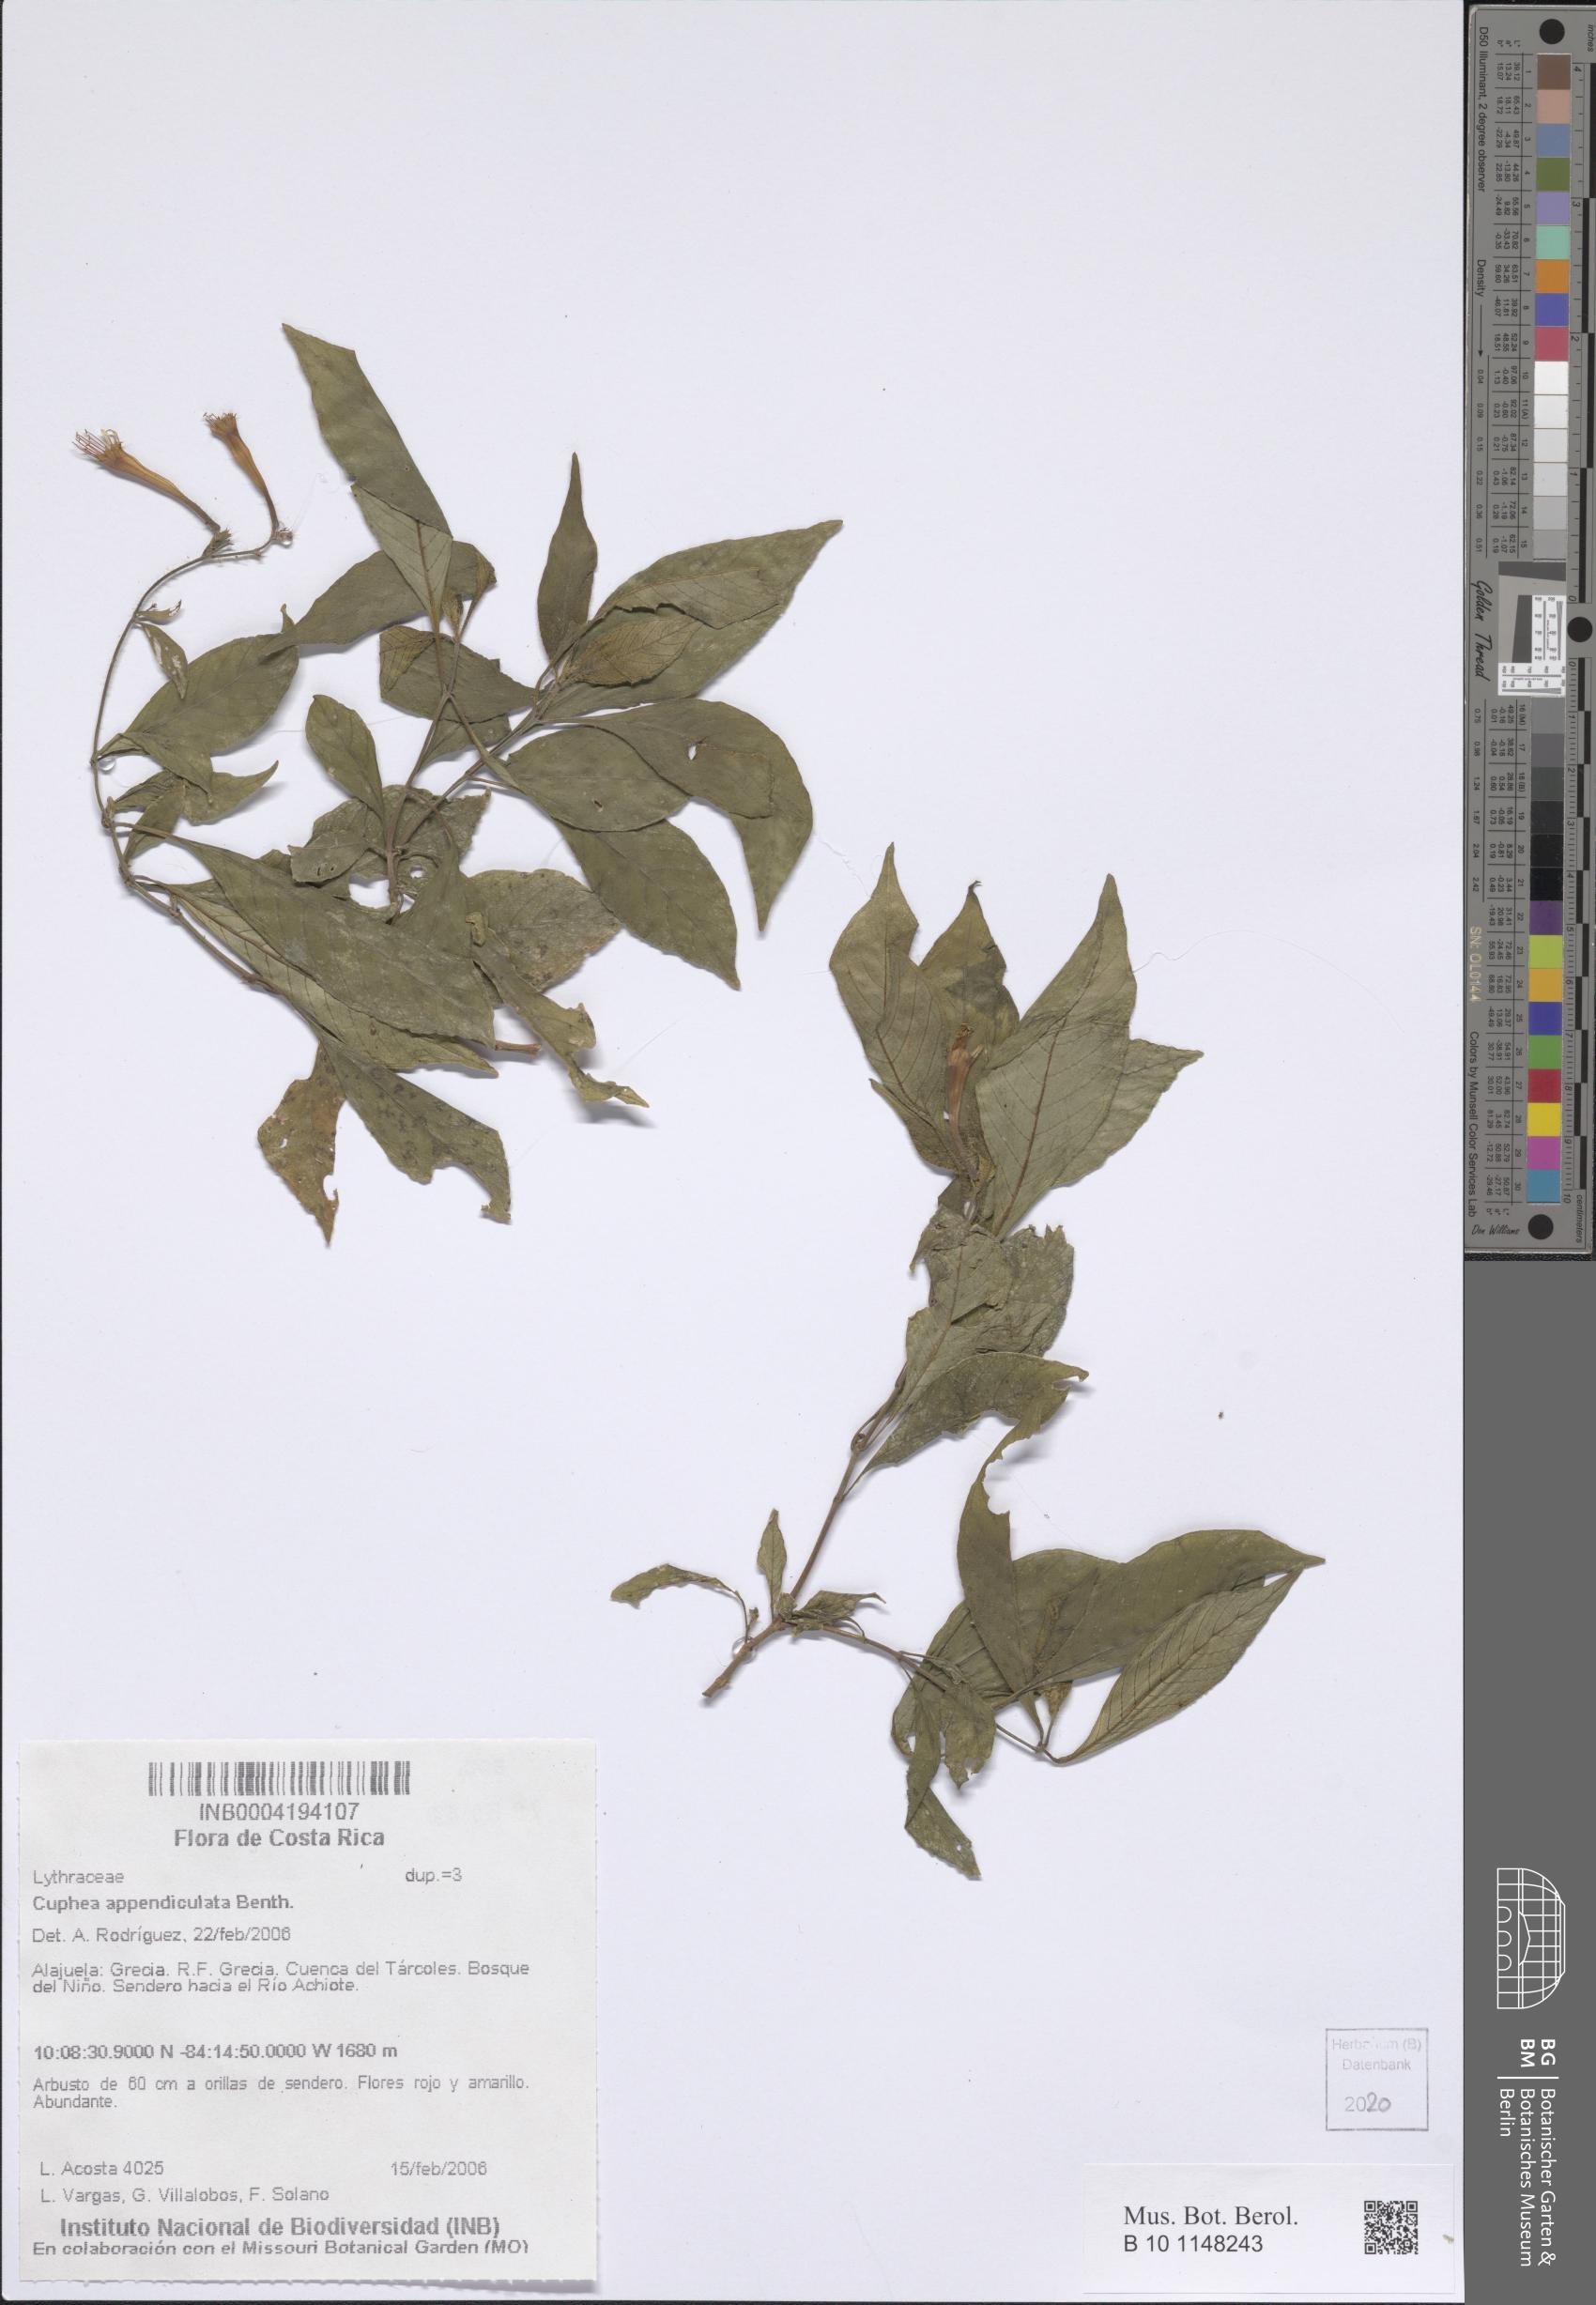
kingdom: Plantae
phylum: Tracheophyta
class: Magnoliopsida
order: Myrtales
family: Lythraceae
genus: Cuphea
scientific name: Cuphea appendiculata
